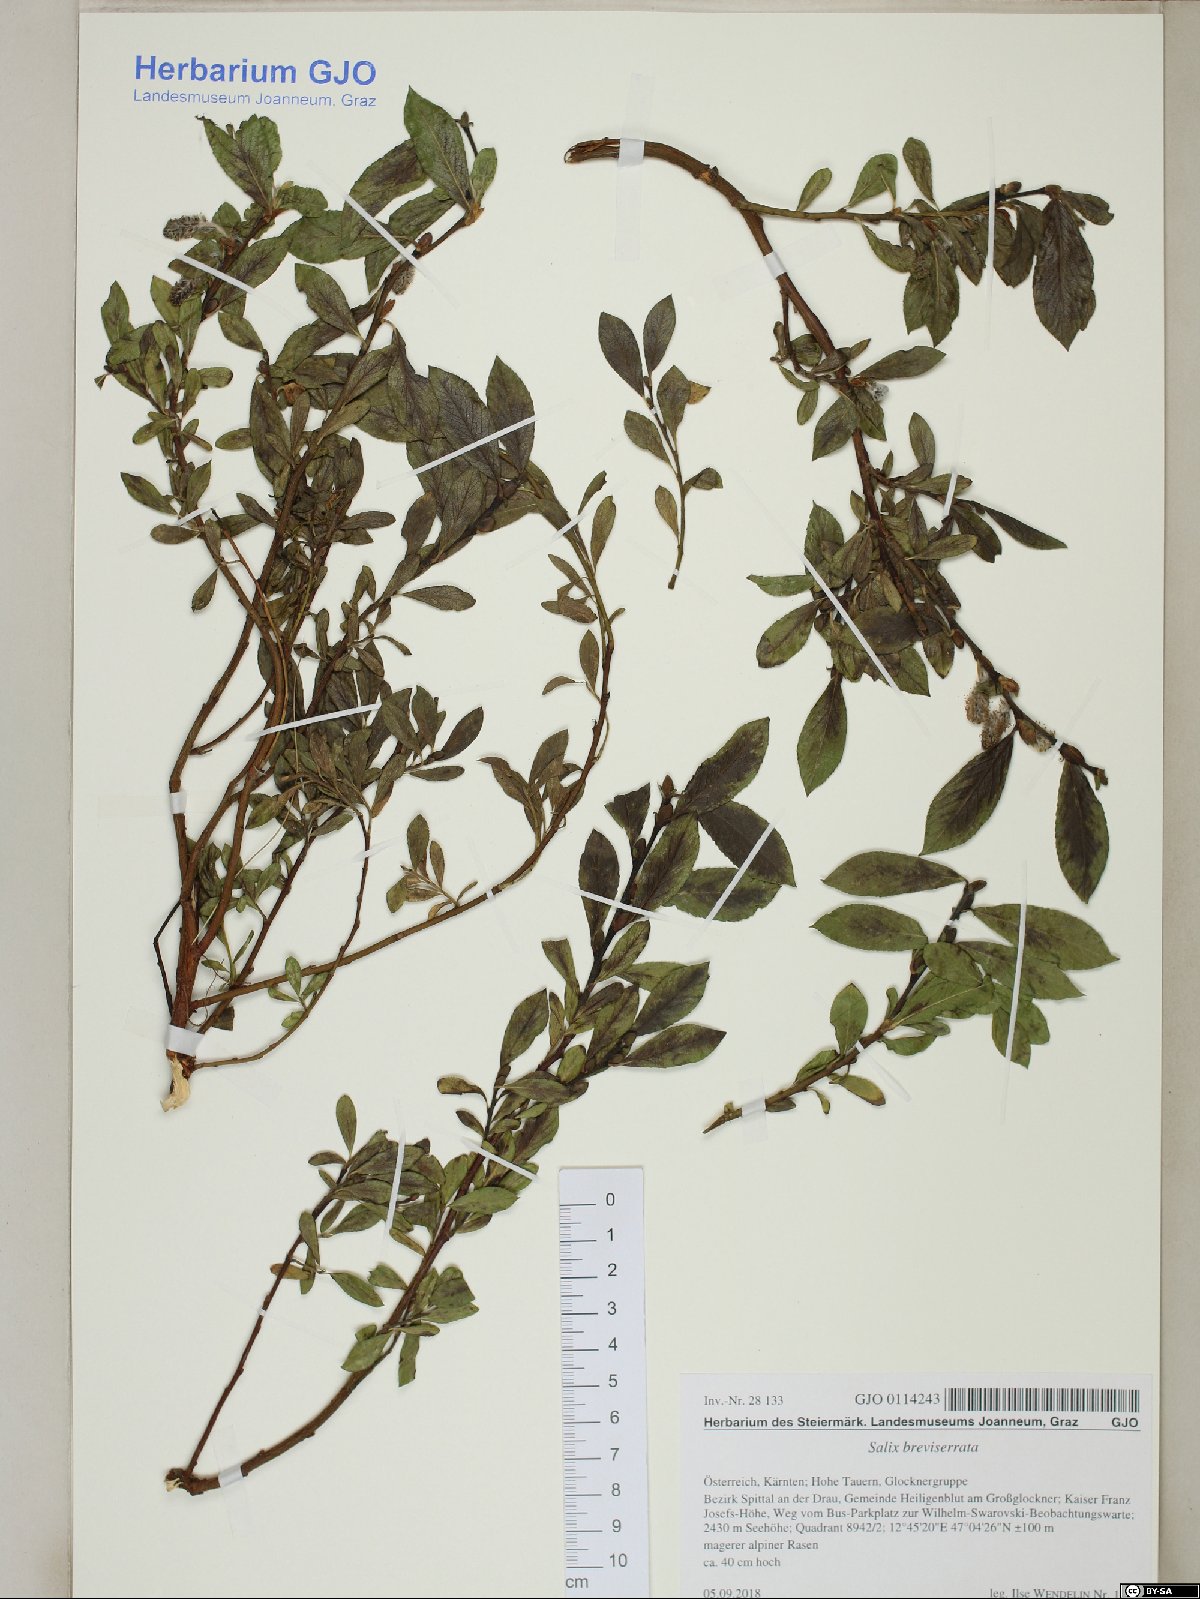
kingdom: Plantae
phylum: Tracheophyta
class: Magnoliopsida
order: Malpighiales
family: Salicaceae
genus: Salix
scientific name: Salix breviserrata
